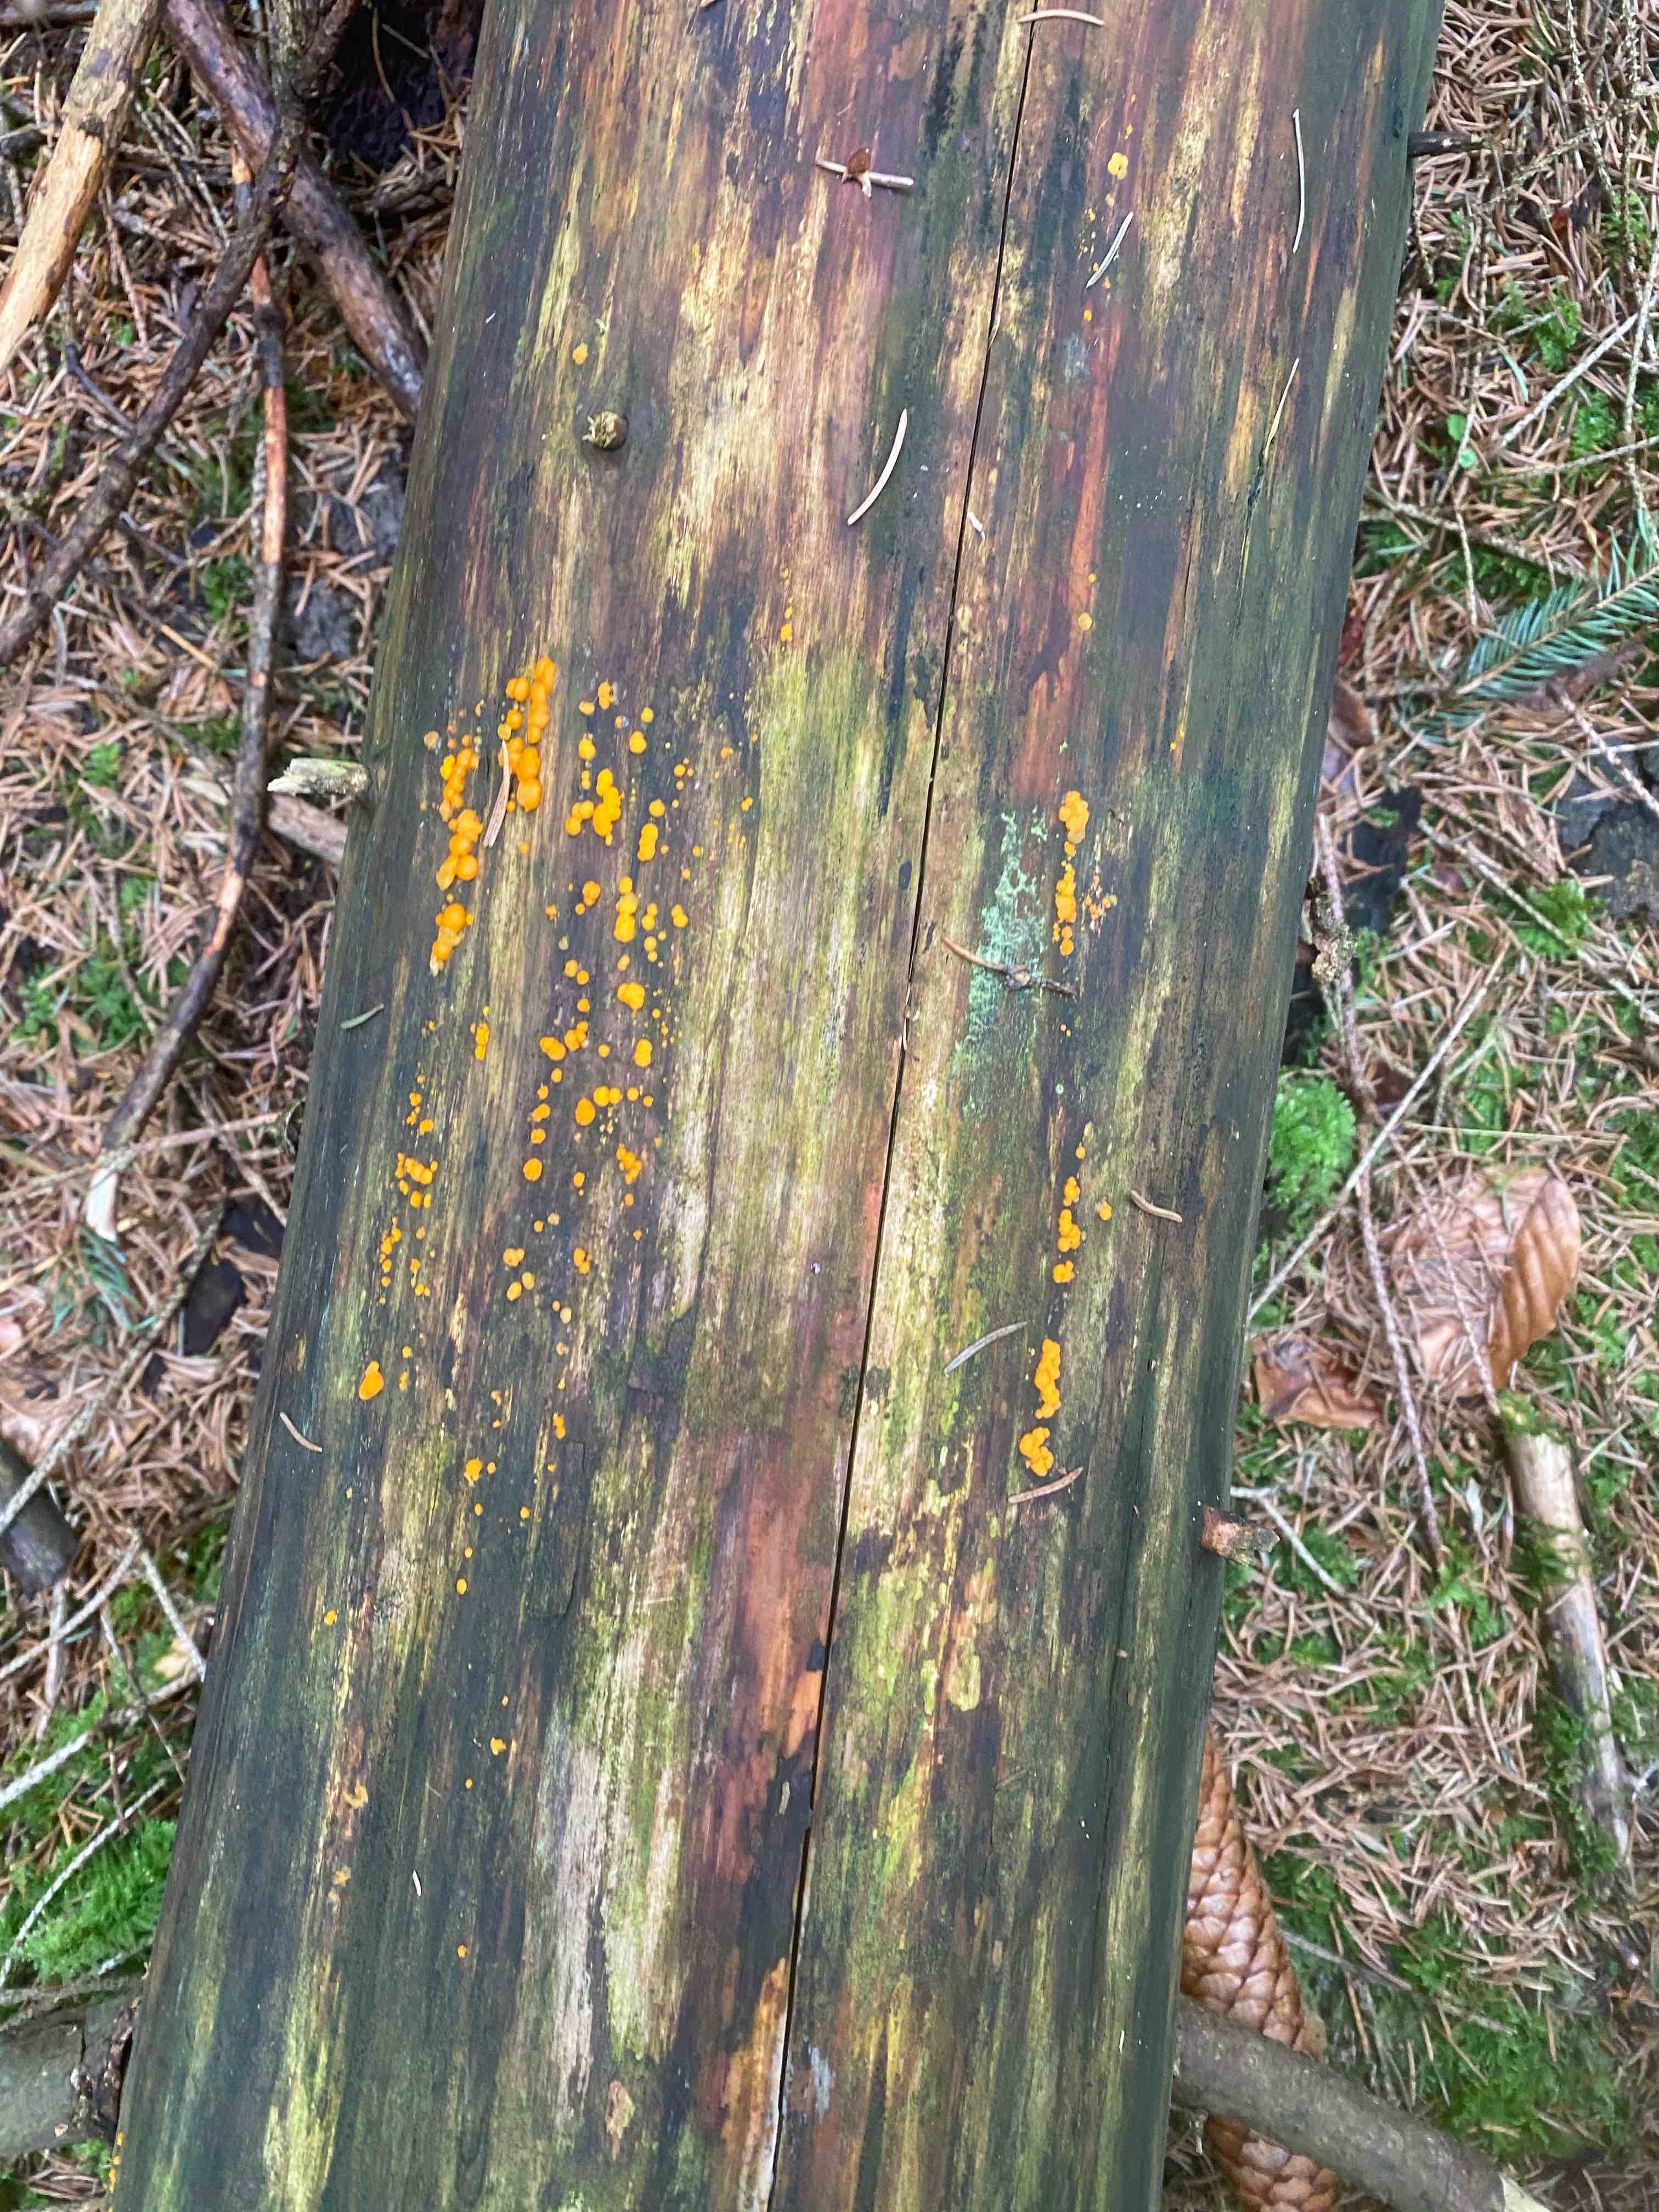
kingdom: Fungi
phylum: Basidiomycota
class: Dacrymycetes
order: Dacrymycetales
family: Dacrymycetaceae
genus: Dacrymyces
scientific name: Dacrymyces stillatus
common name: almindelig tåresvamp
